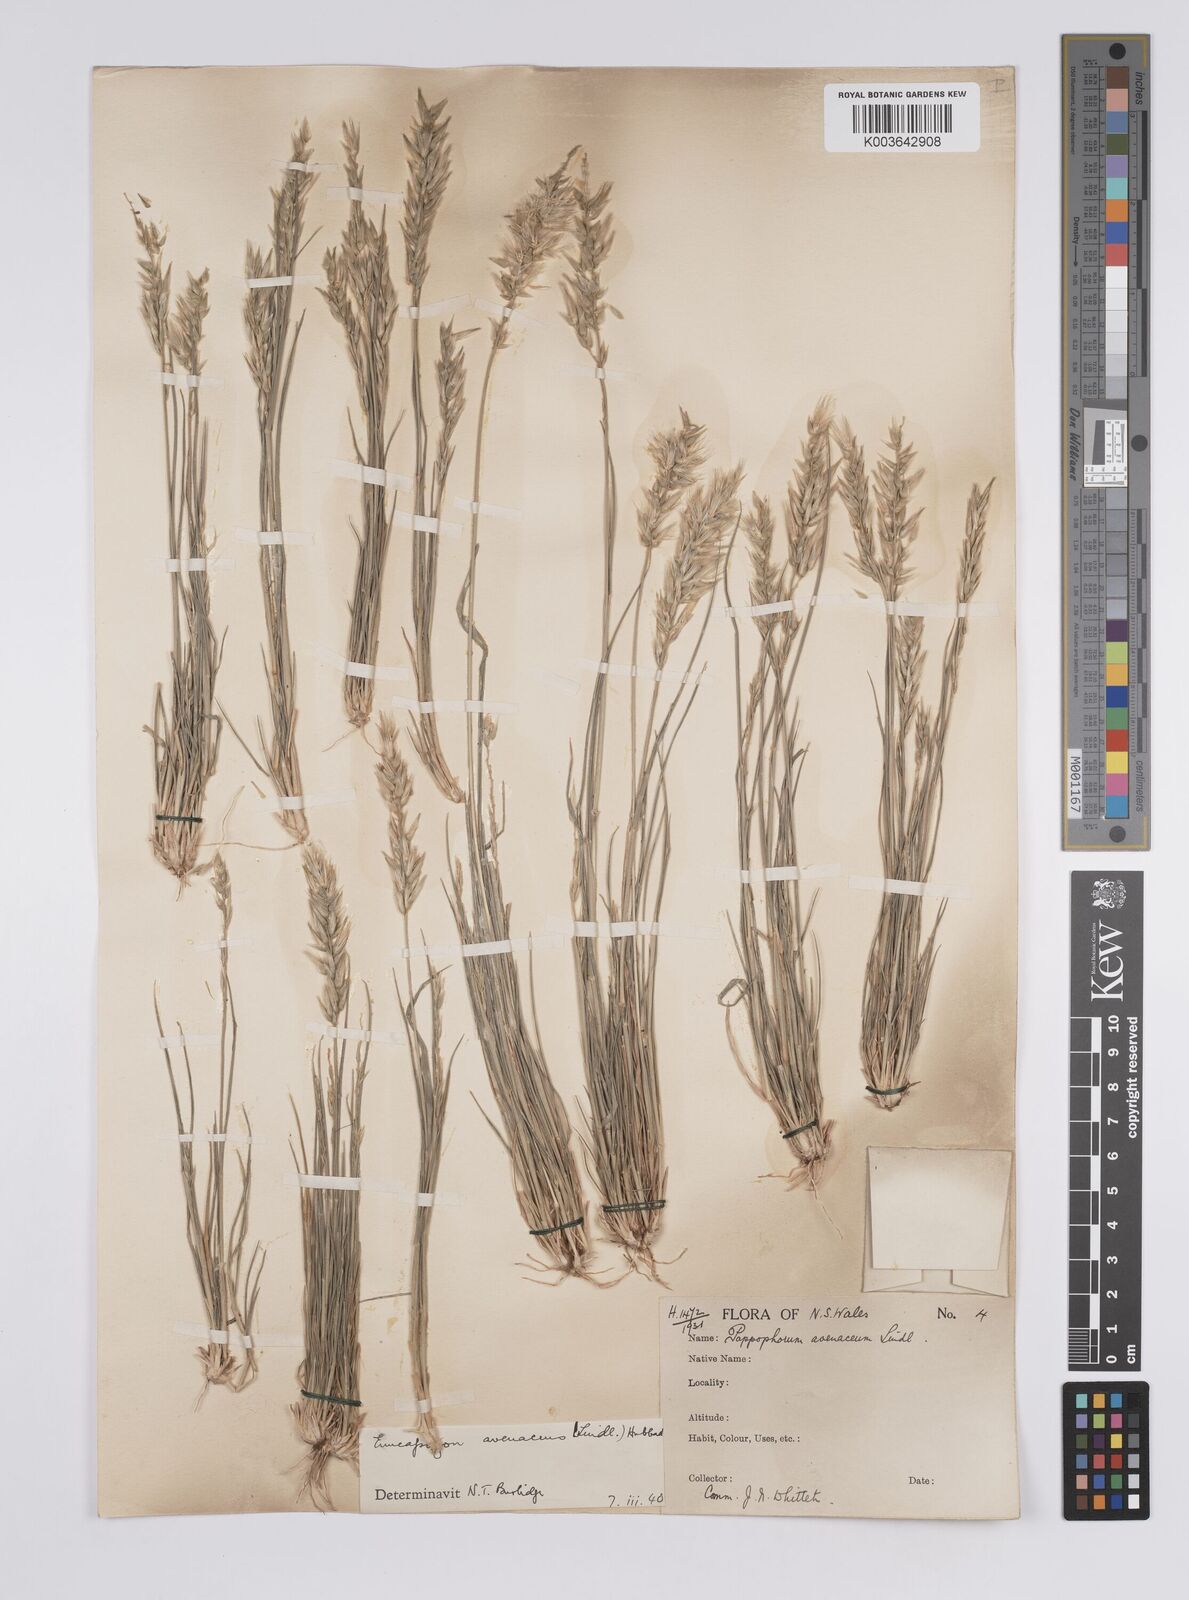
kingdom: Plantae
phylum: Tracheophyta
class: Liliopsida
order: Poales
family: Poaceae
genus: Enneapogon
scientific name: Enneapogon avenaceus
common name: Hairy oat grass
